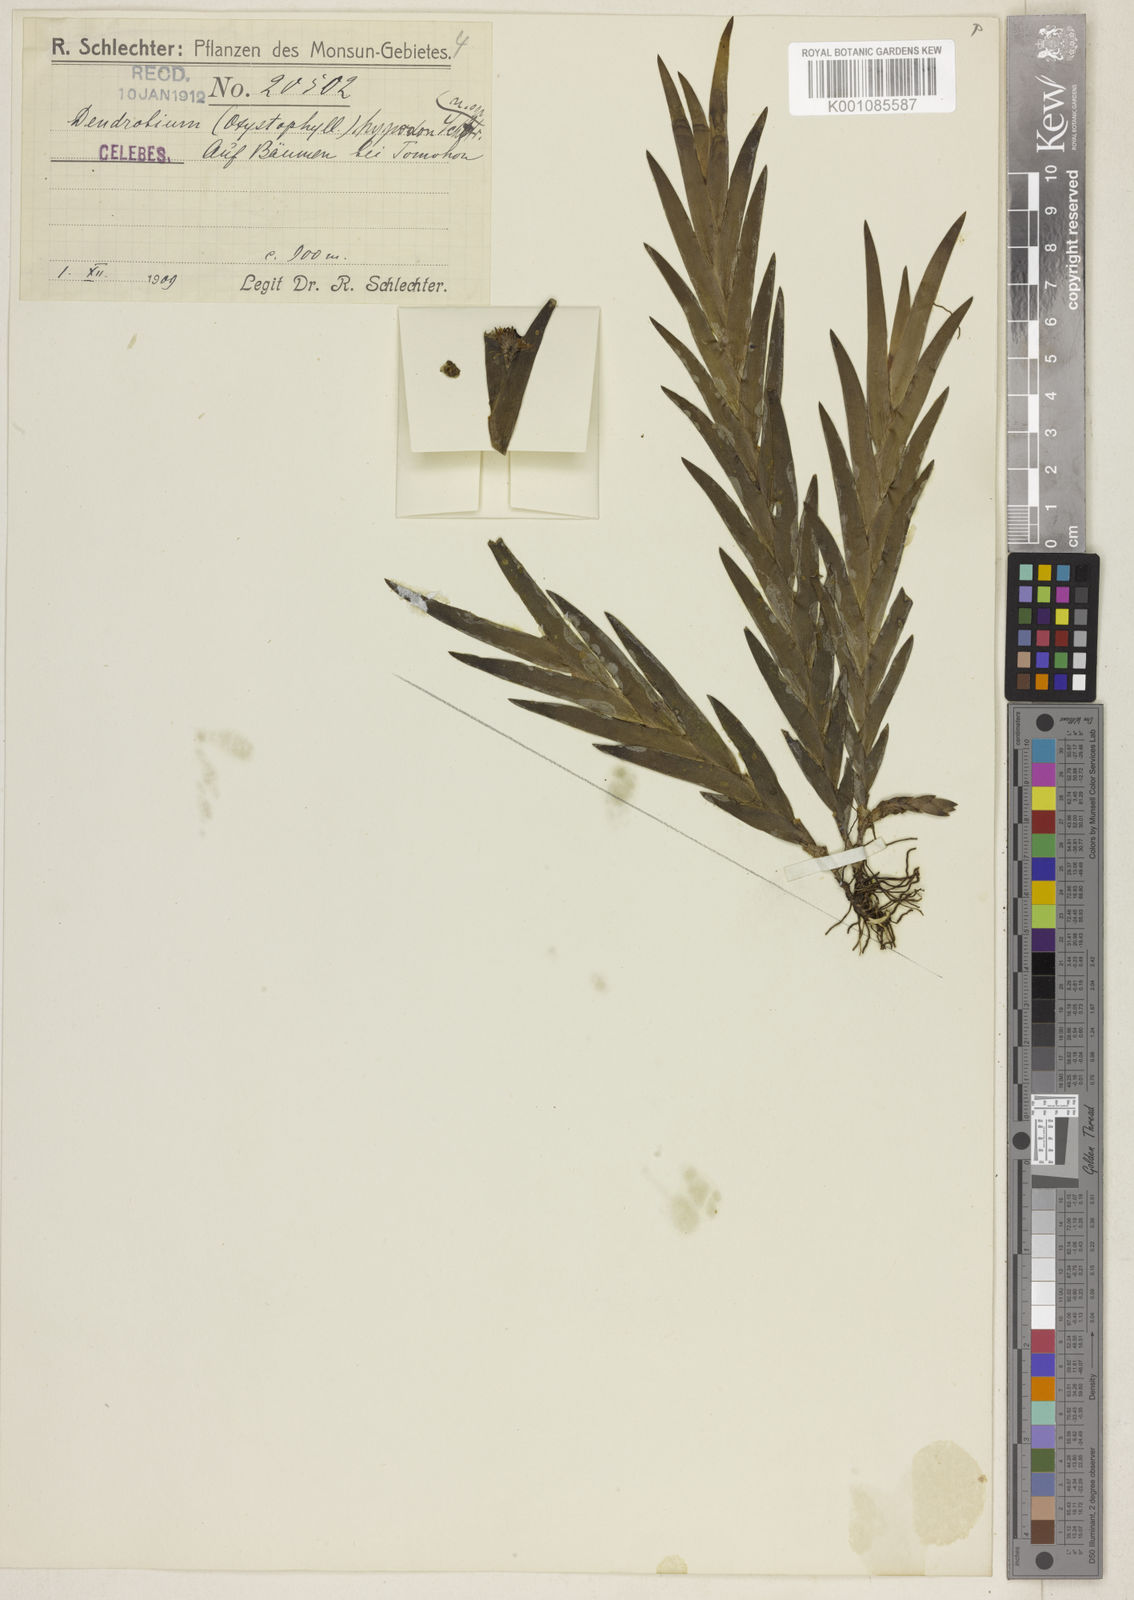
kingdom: Plantae
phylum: Tracheophyta
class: Liliopsida
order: Asparagales
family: Orchidaceae
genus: Oxystophyllum
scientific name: Oxystophyllum hypodon
